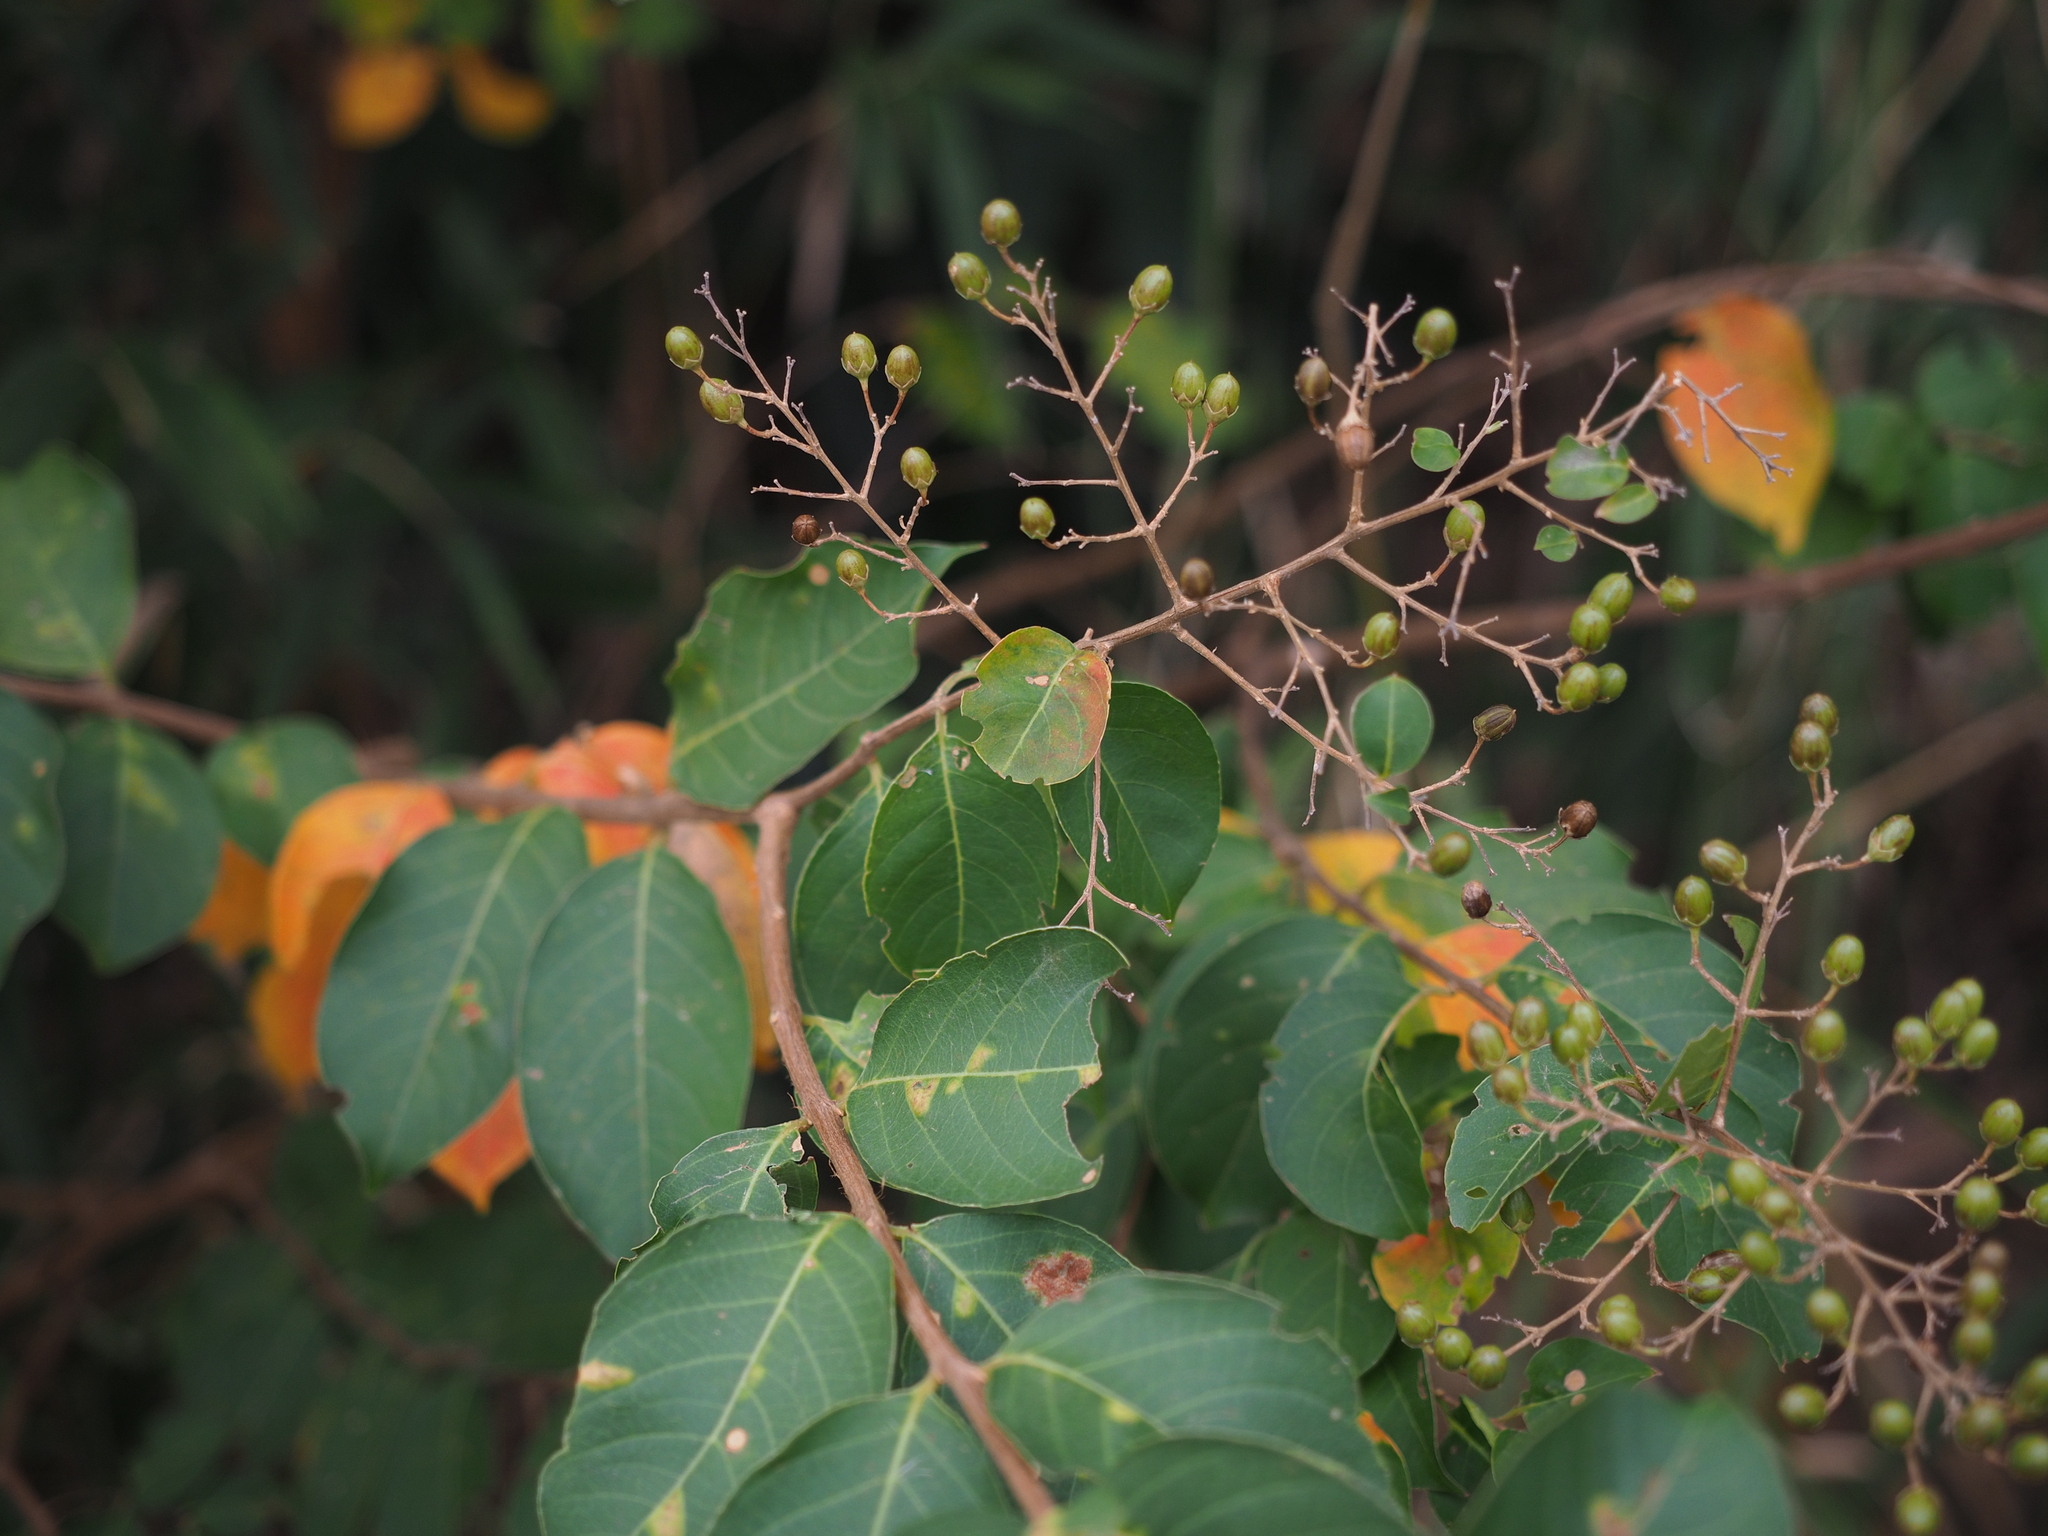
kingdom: Plantae
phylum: Tracheophyta
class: Magnoliopsida
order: Myrtales
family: Lythraceae
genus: Lagerstroemia
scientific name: Lagerstroemia subcostata
